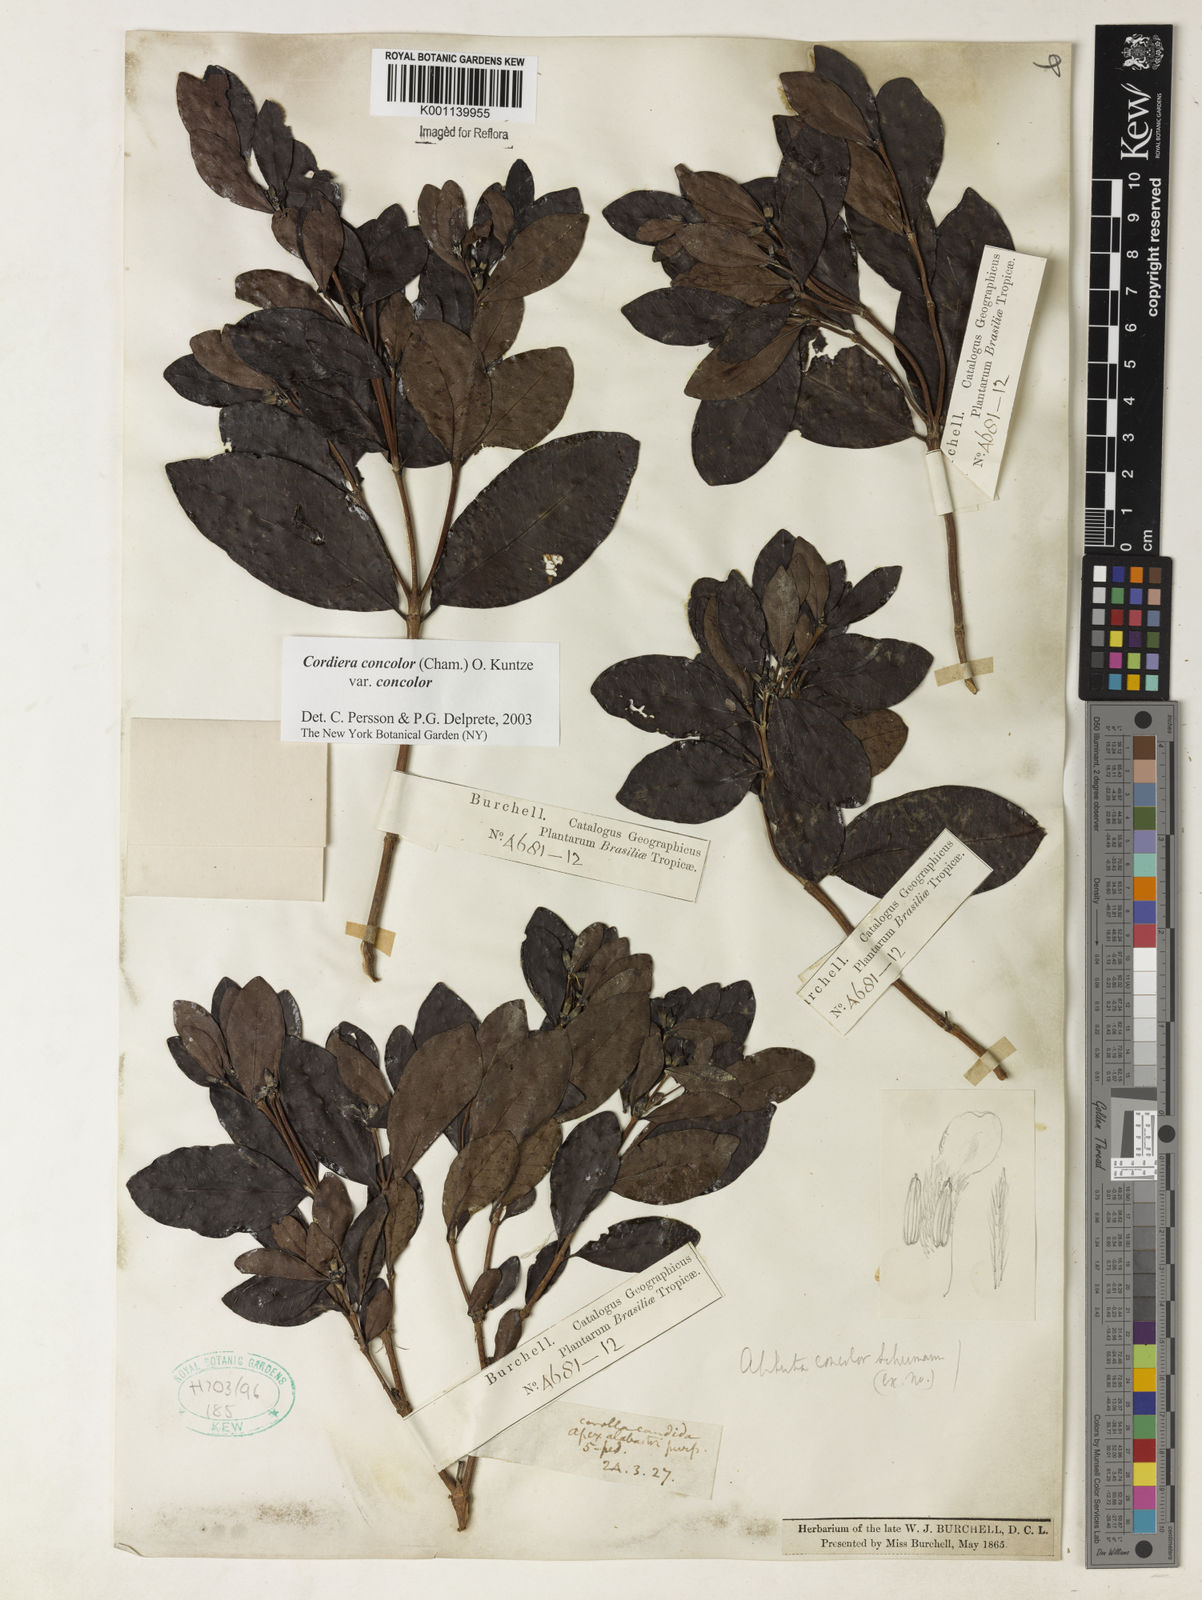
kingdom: Plantae
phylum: Tracheophyta
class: Magnoliopsida
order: Gentianales
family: Rubiaceae
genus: Cordiera
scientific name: Cordiera concolor
